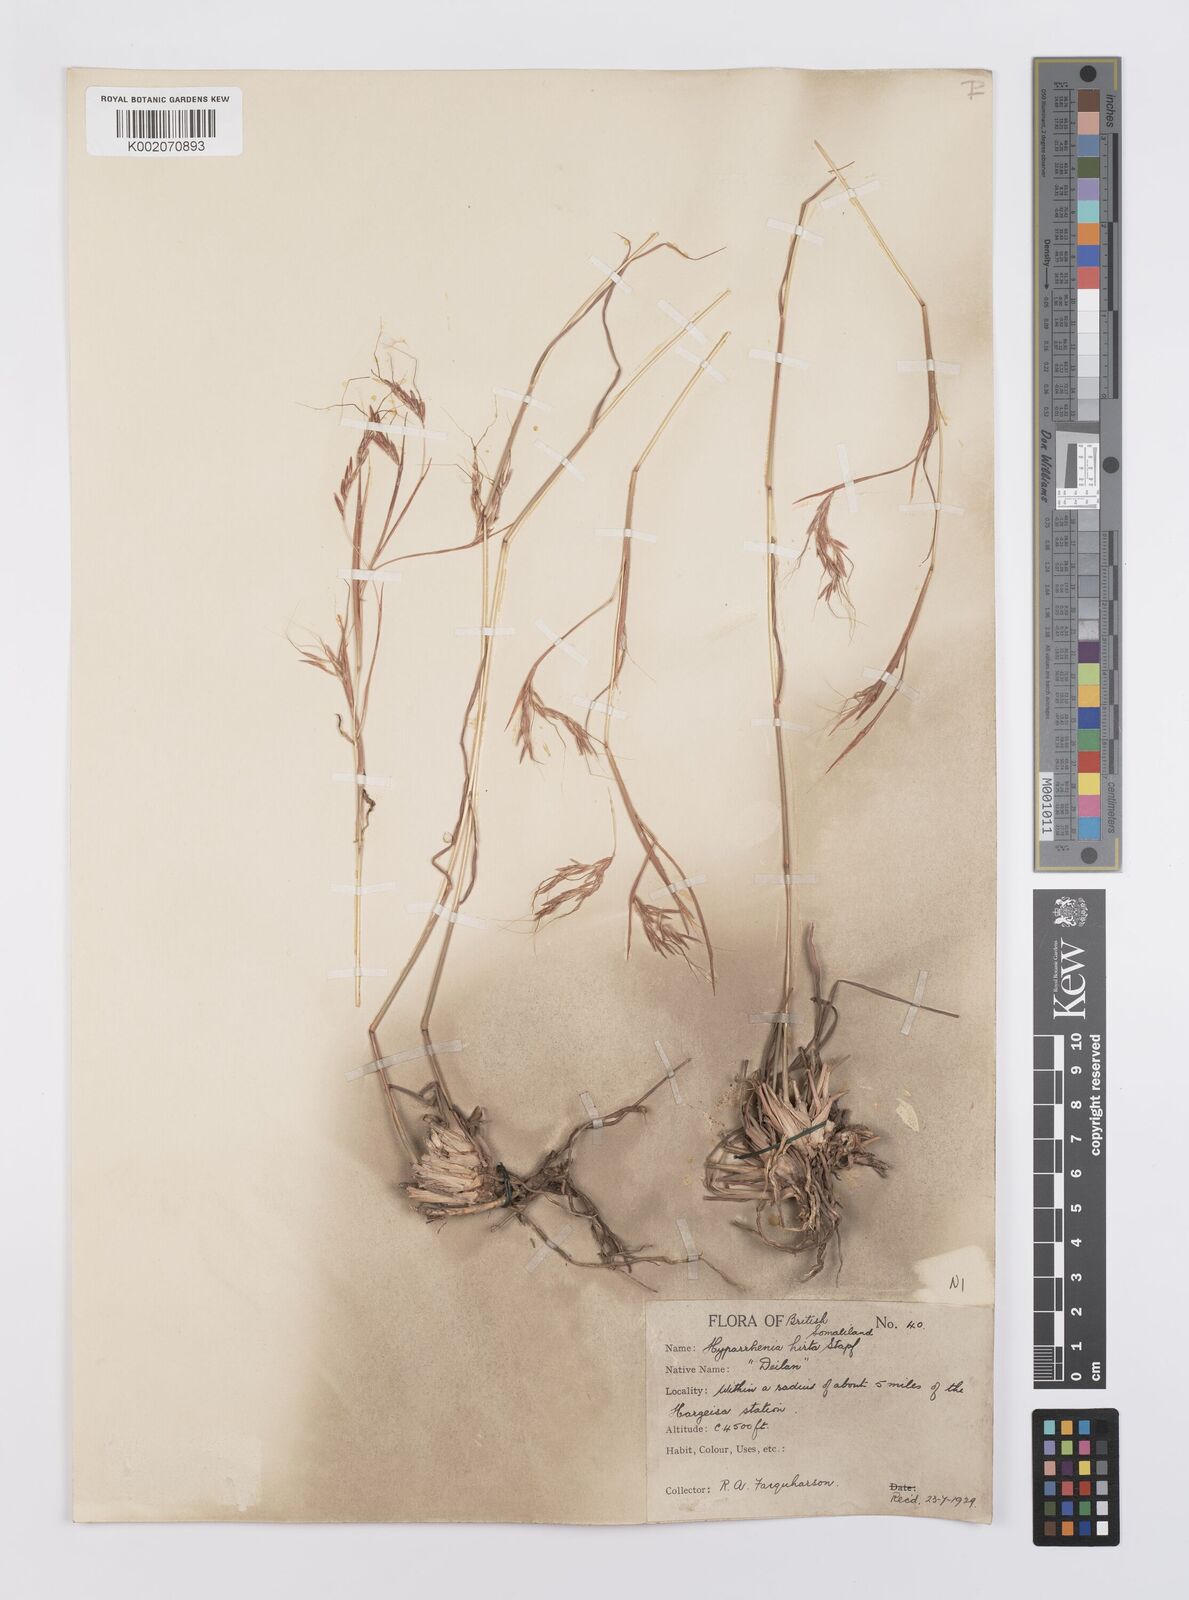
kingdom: Plantae
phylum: Tracheophyta
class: Liliopsida
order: Poales
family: Poaceae
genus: Hyparrhenia
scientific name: Hyparrhenia hirta
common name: Thatching grass
